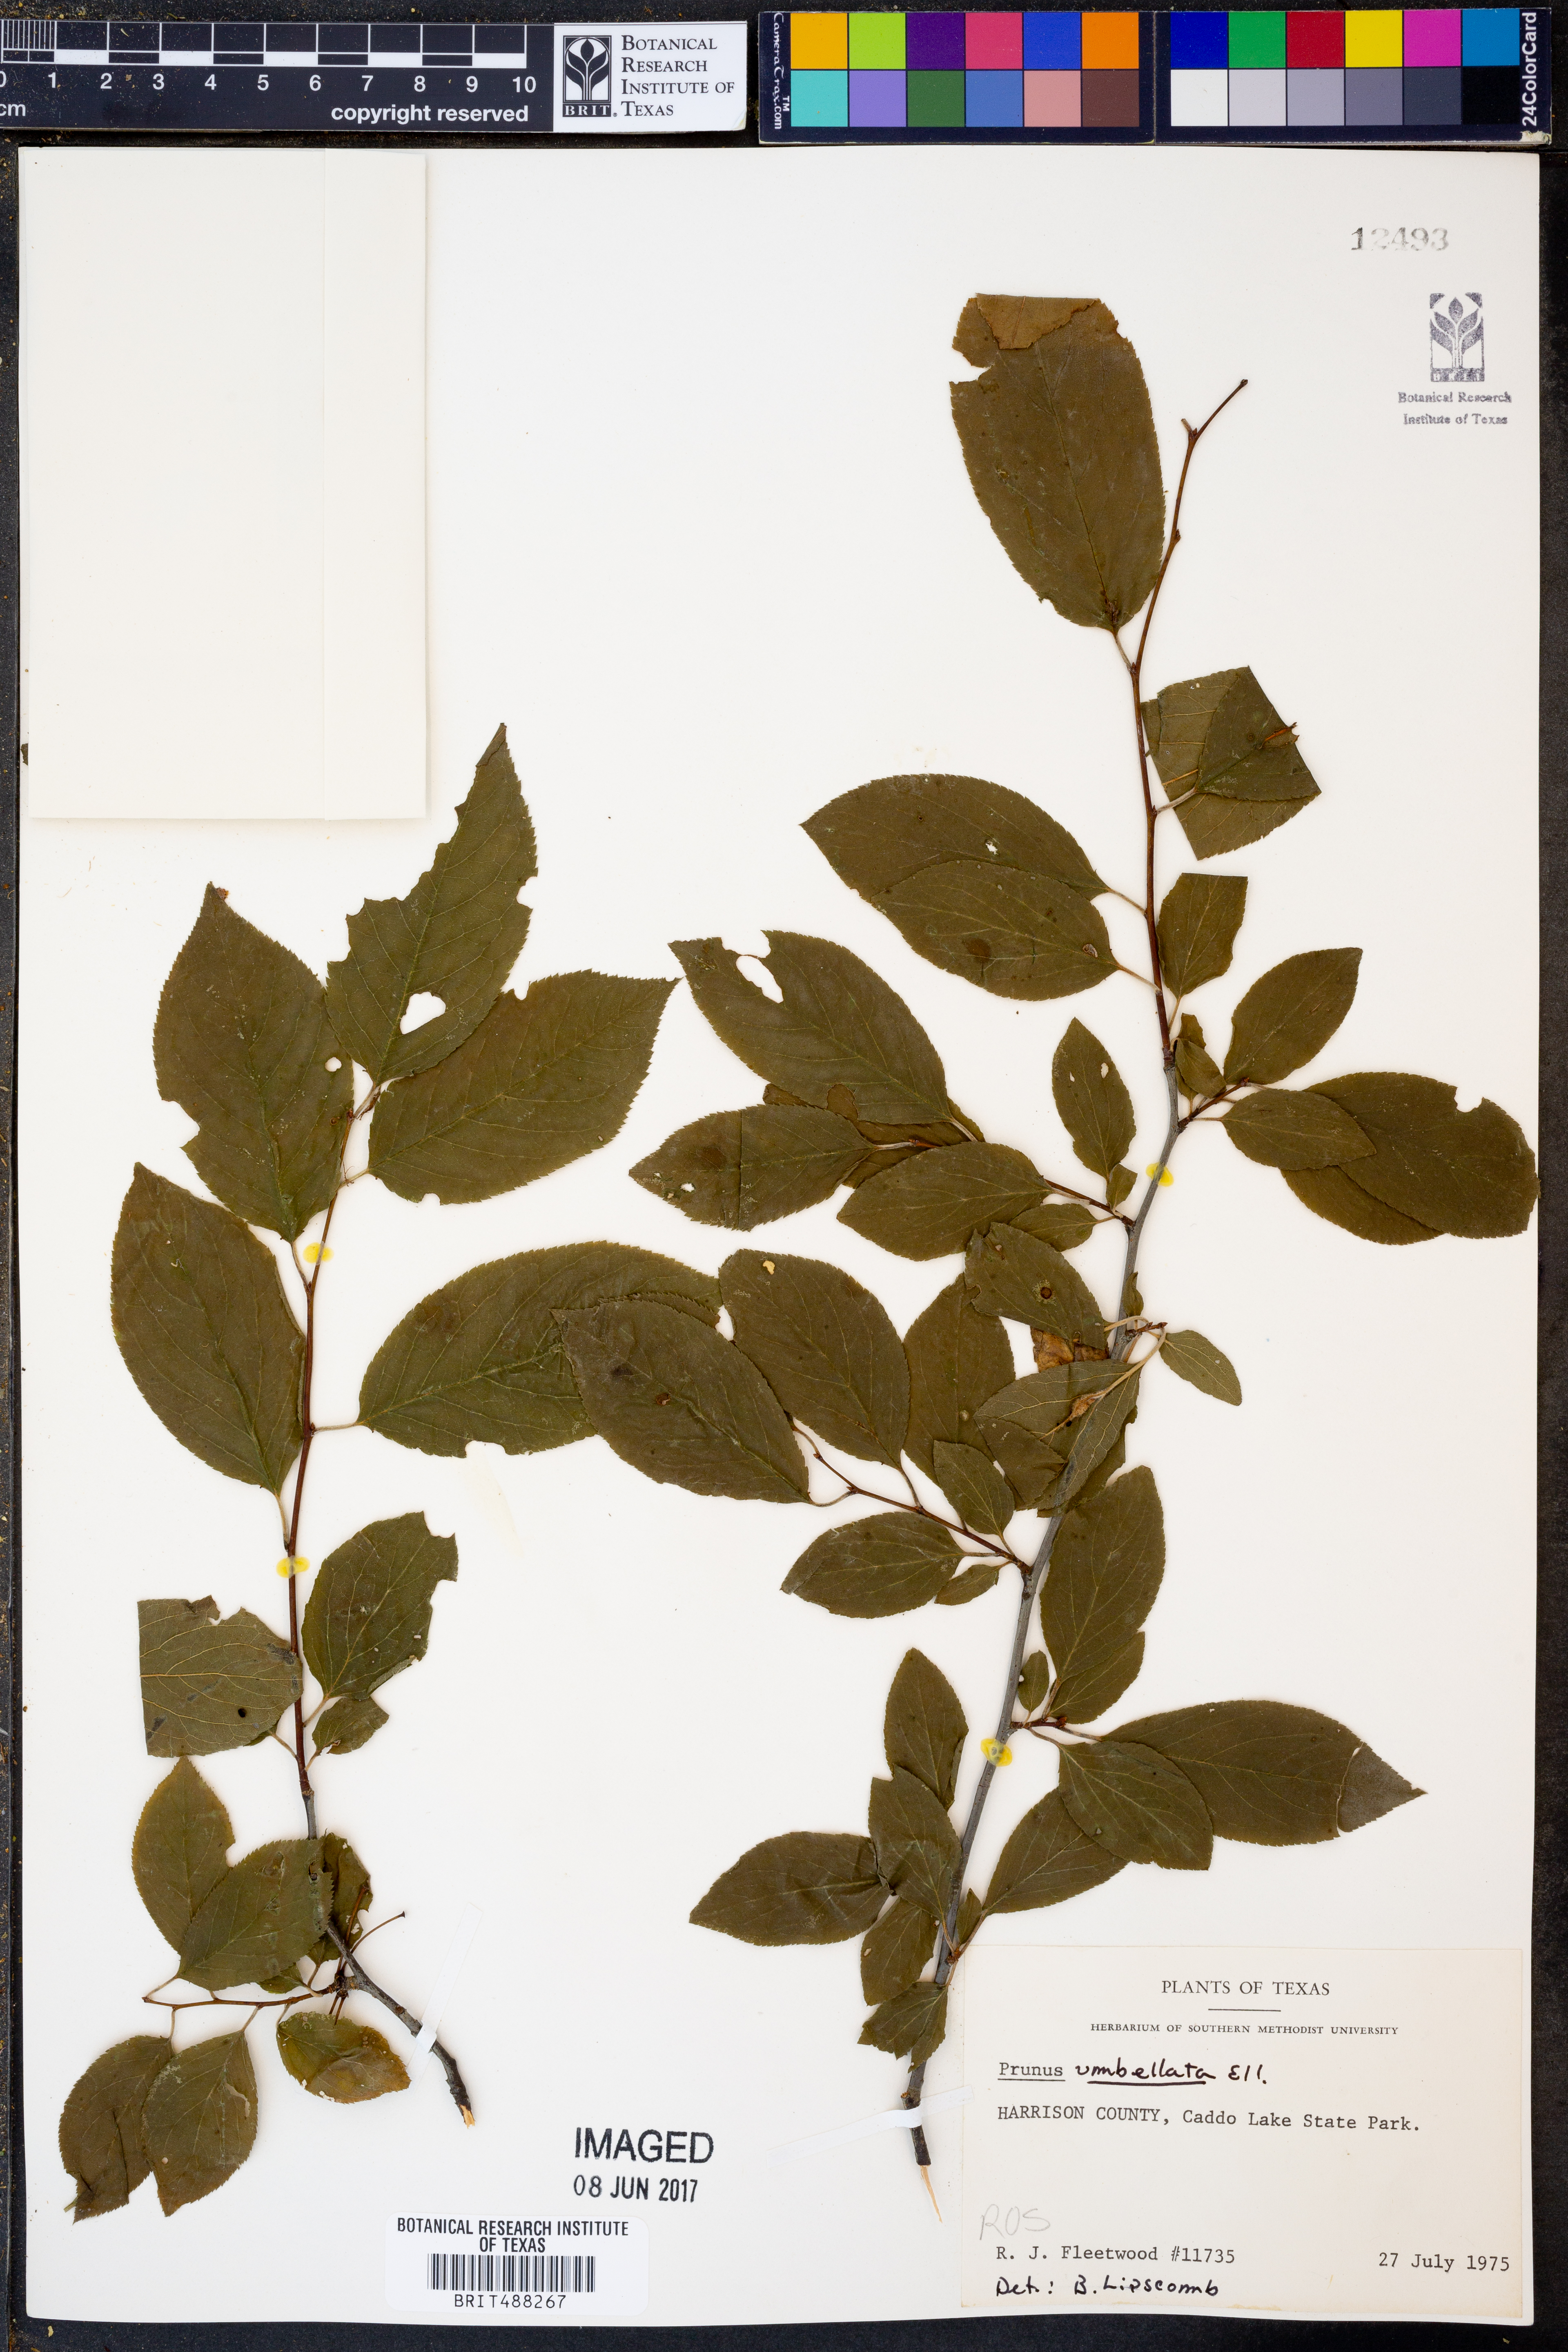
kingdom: Plantae
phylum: Tracheophyta
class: Magnoliopsida
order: Rosales
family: Rosaceae
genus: Prunus
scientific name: Prunus umbellata
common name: Allegheny plum
